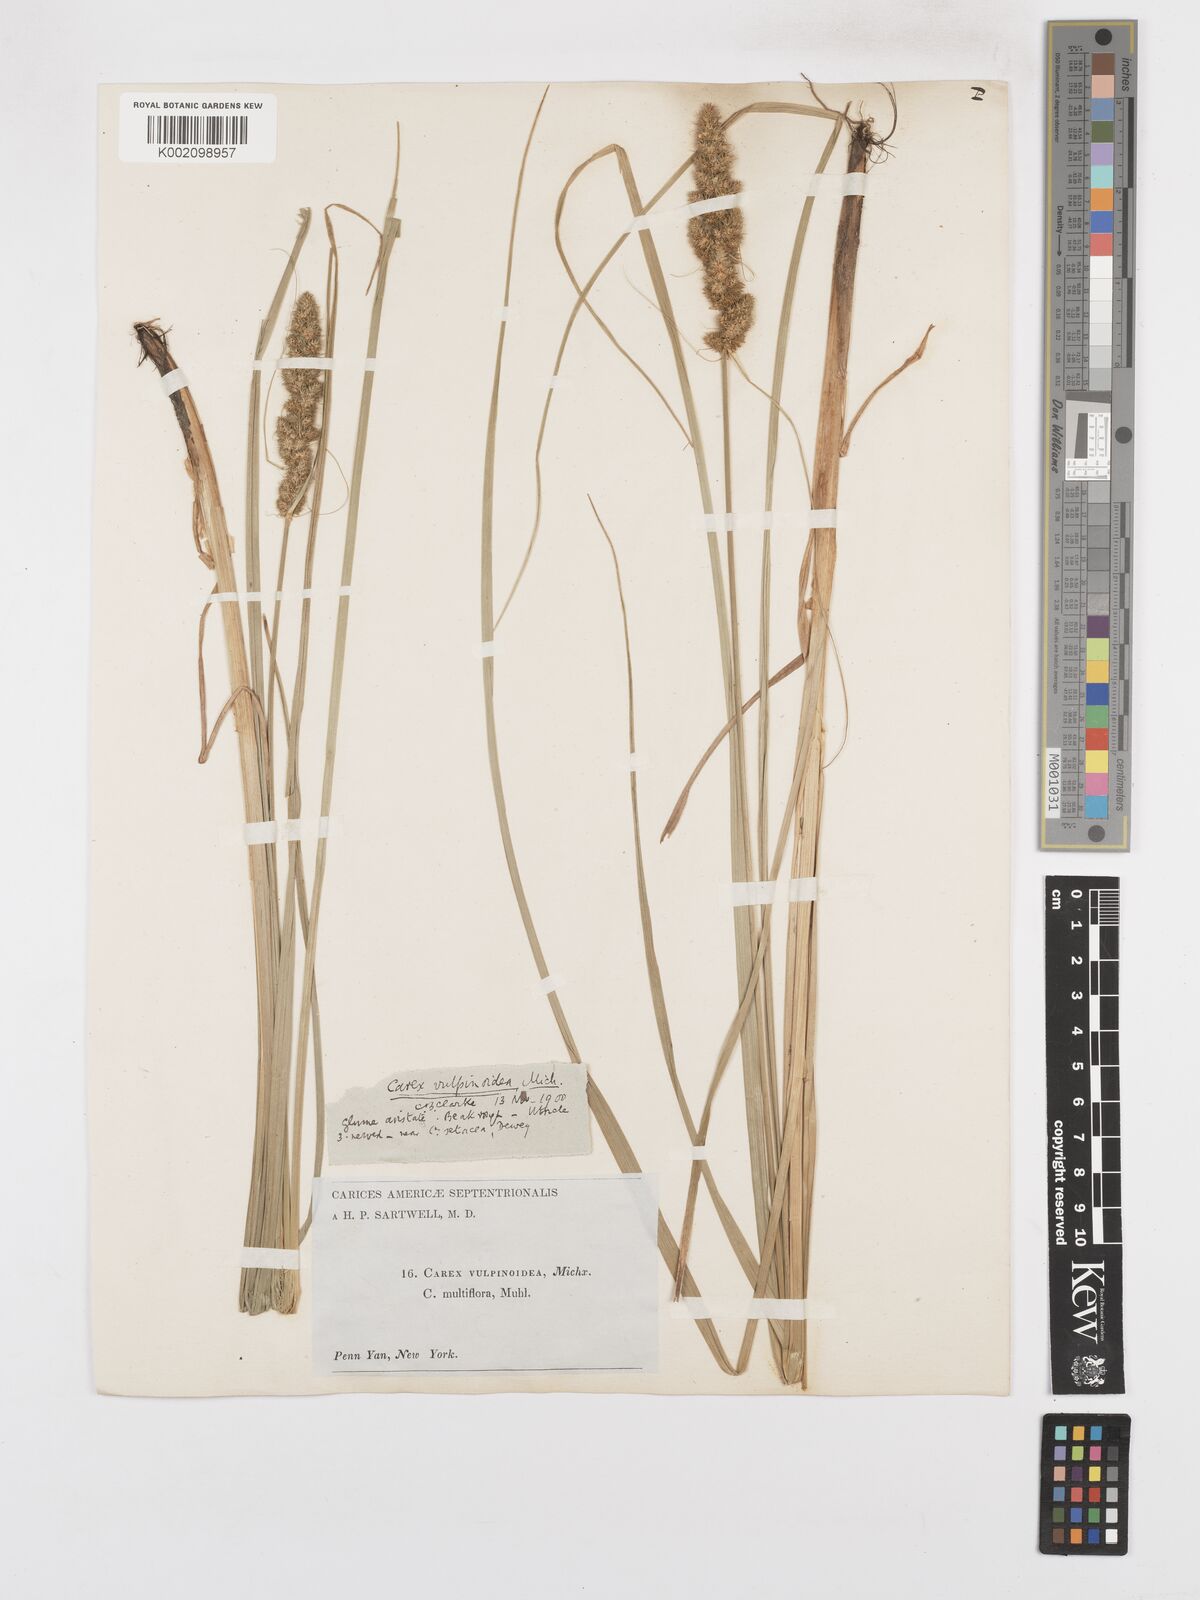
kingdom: Plantae
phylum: Tracheophyta
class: Liliopsida
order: Poales
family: Cyperaceae
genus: Carex
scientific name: Carex vulpinoidea
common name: American fox-sedge
